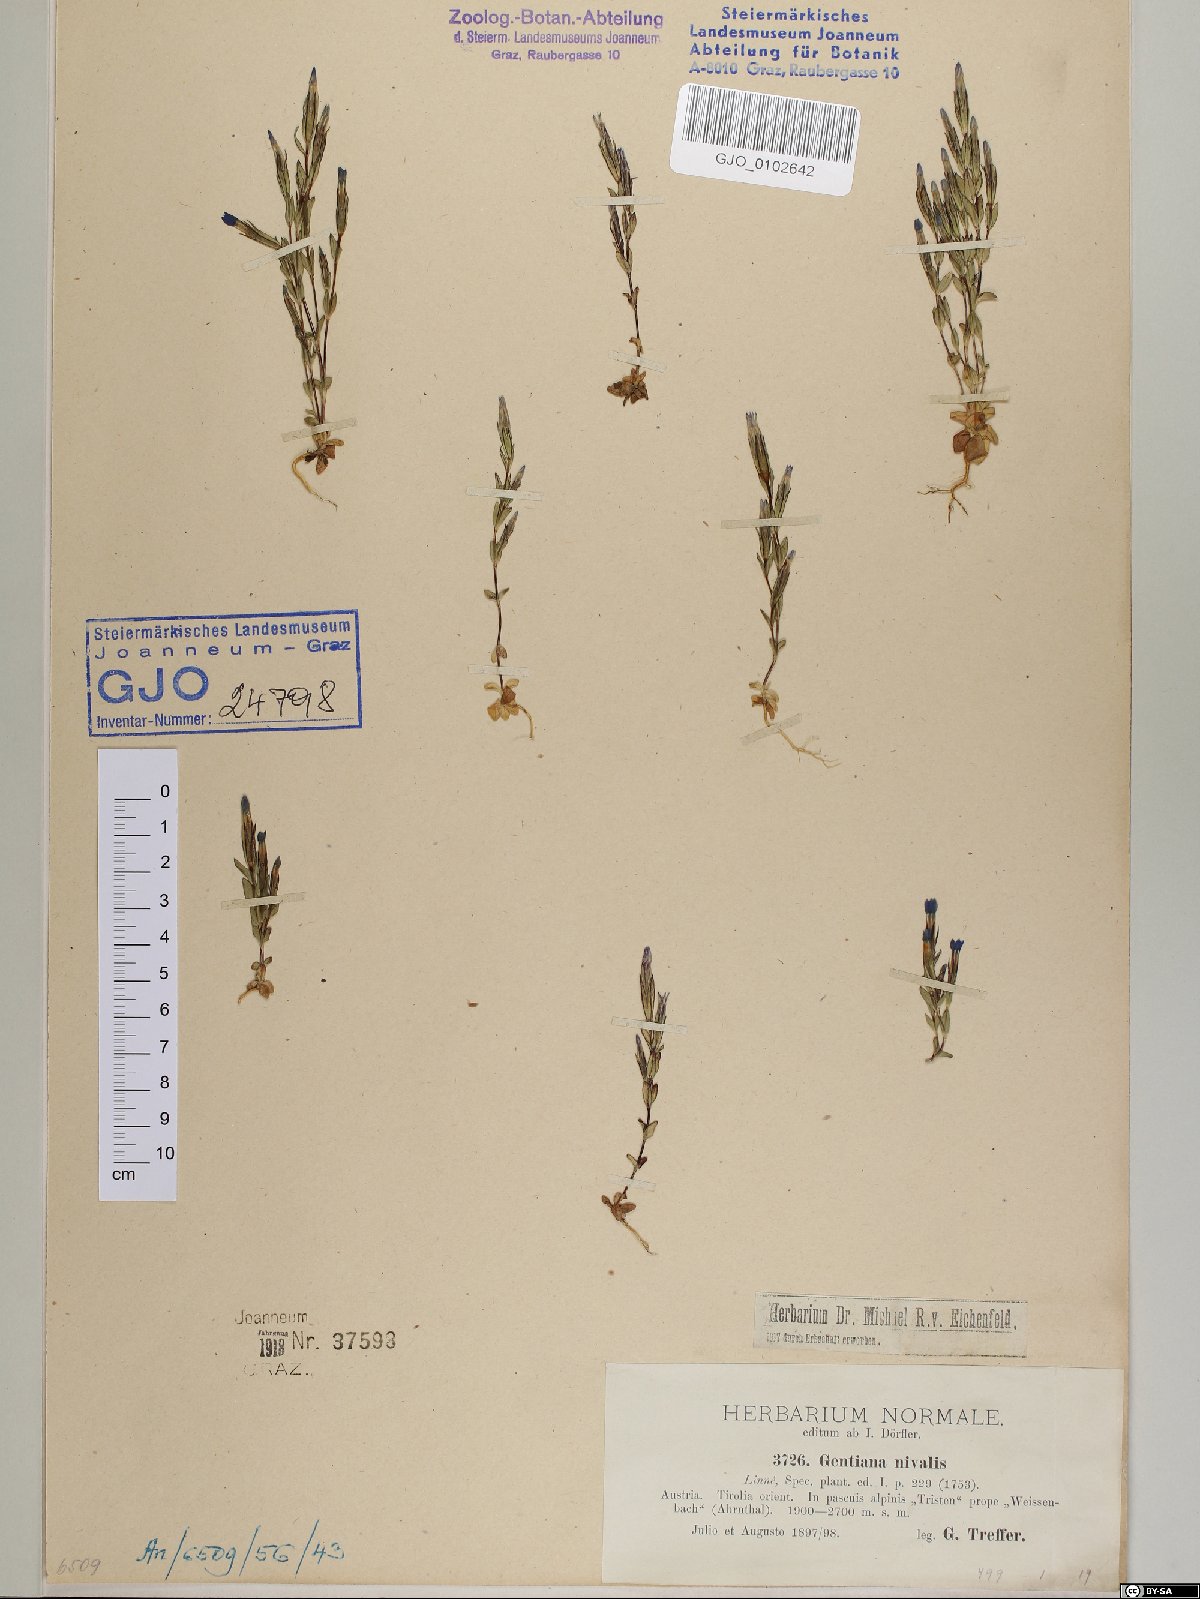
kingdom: Plantae
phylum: Tracheophyta
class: Magnoliopsida
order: Gentianales
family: Gentianaceae
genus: Gentiana
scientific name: Gentiana nivalis
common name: Alpine gentian
